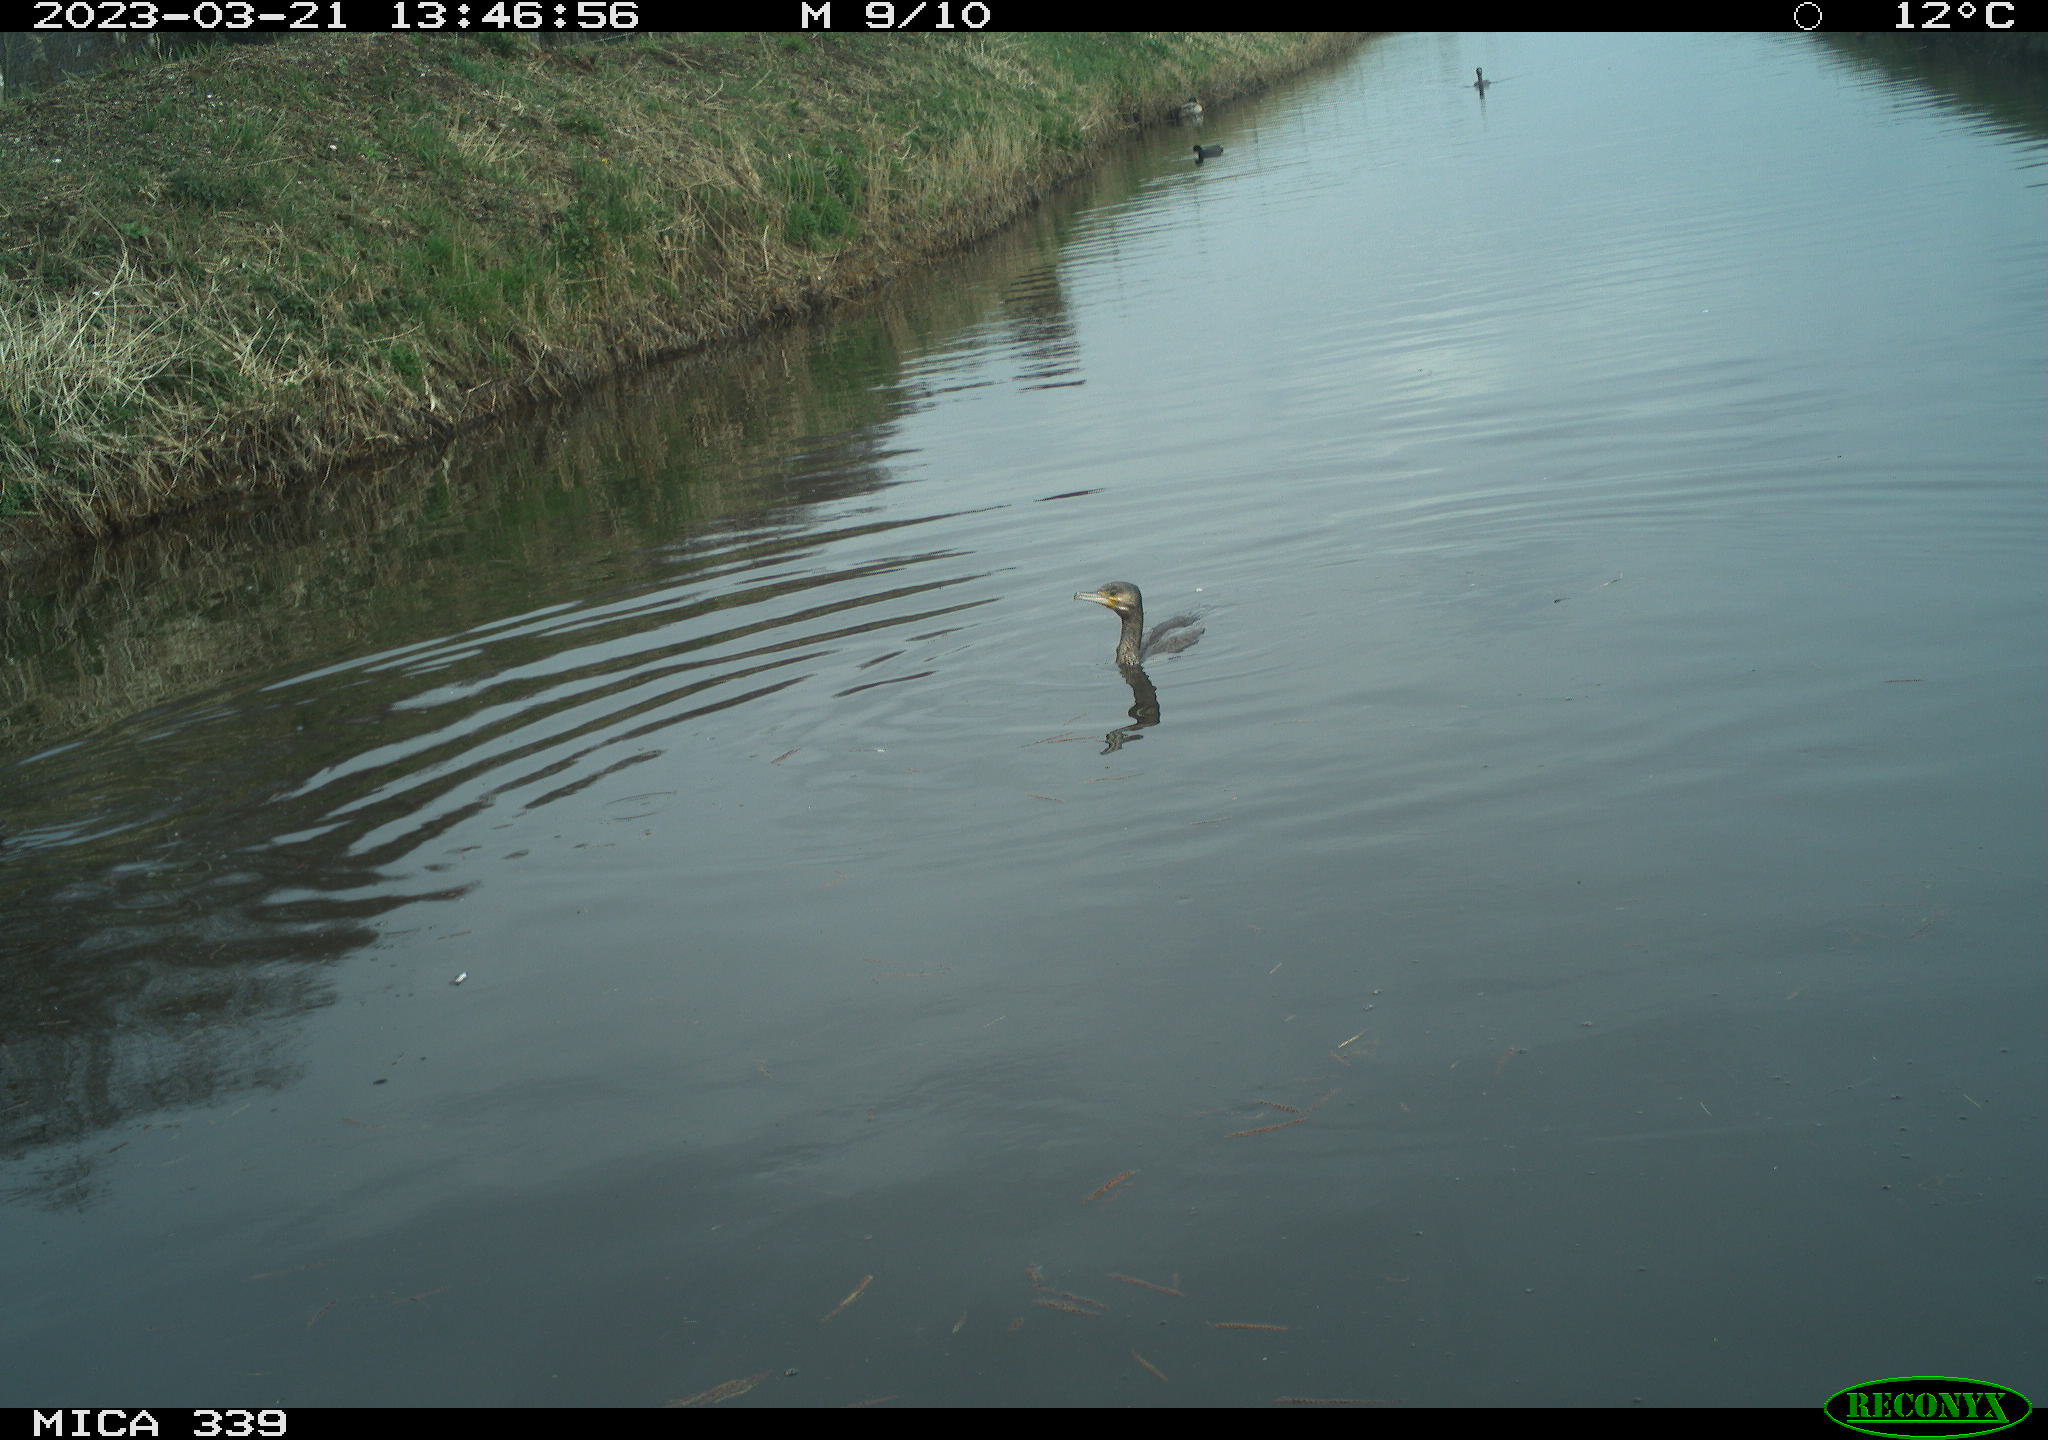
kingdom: Animalia
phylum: Chordata
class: Aves
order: Anseriformes
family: Anatidae
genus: Anas
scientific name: Anas
